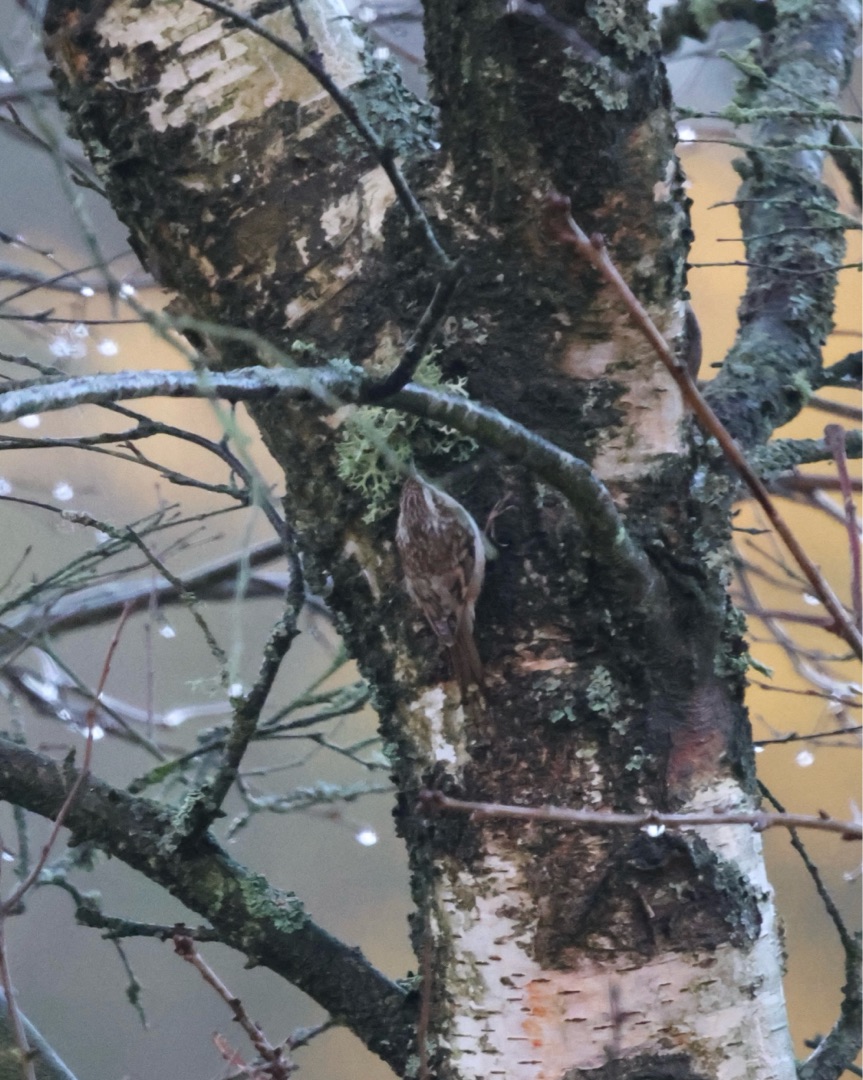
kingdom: Animalia
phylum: Chordata
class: Aves
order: Passeriformes
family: Certhiidae
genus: Certhia
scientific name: Certhia familiaris
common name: Træløber
